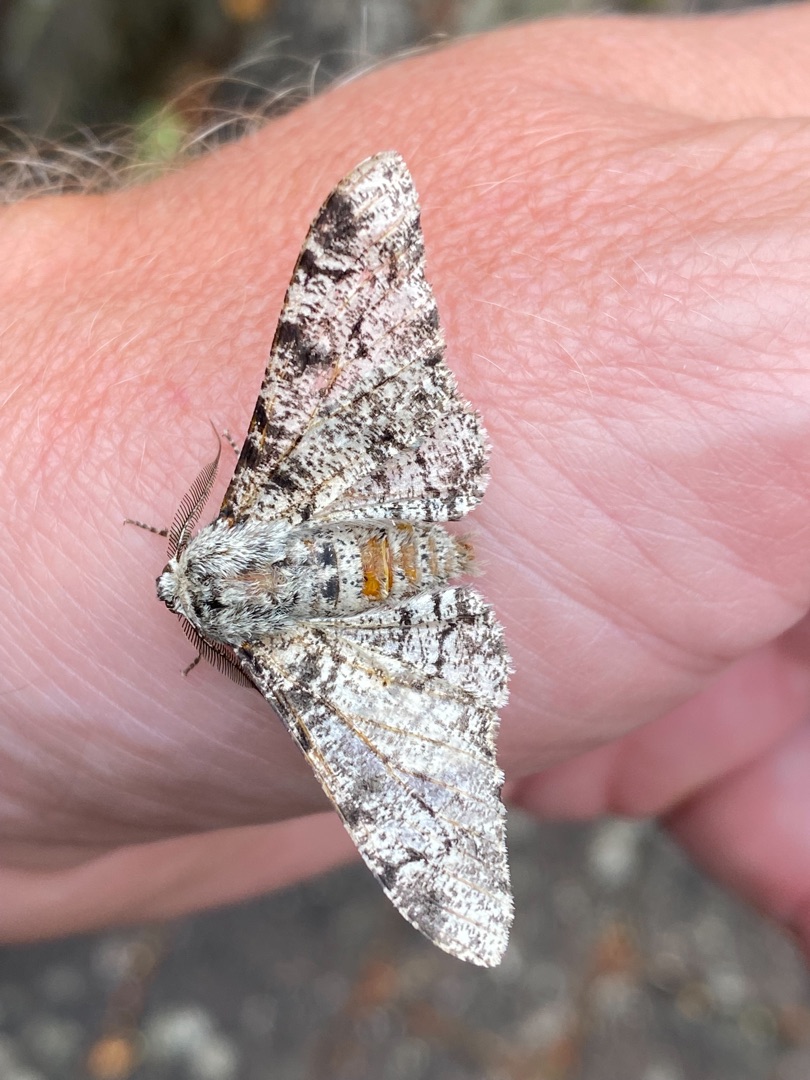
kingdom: Animalia
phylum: Arthropoda
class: Insecta
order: Lepidoptera
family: Geometridae
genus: Biston
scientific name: Biston betularia
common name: Birkemåler
